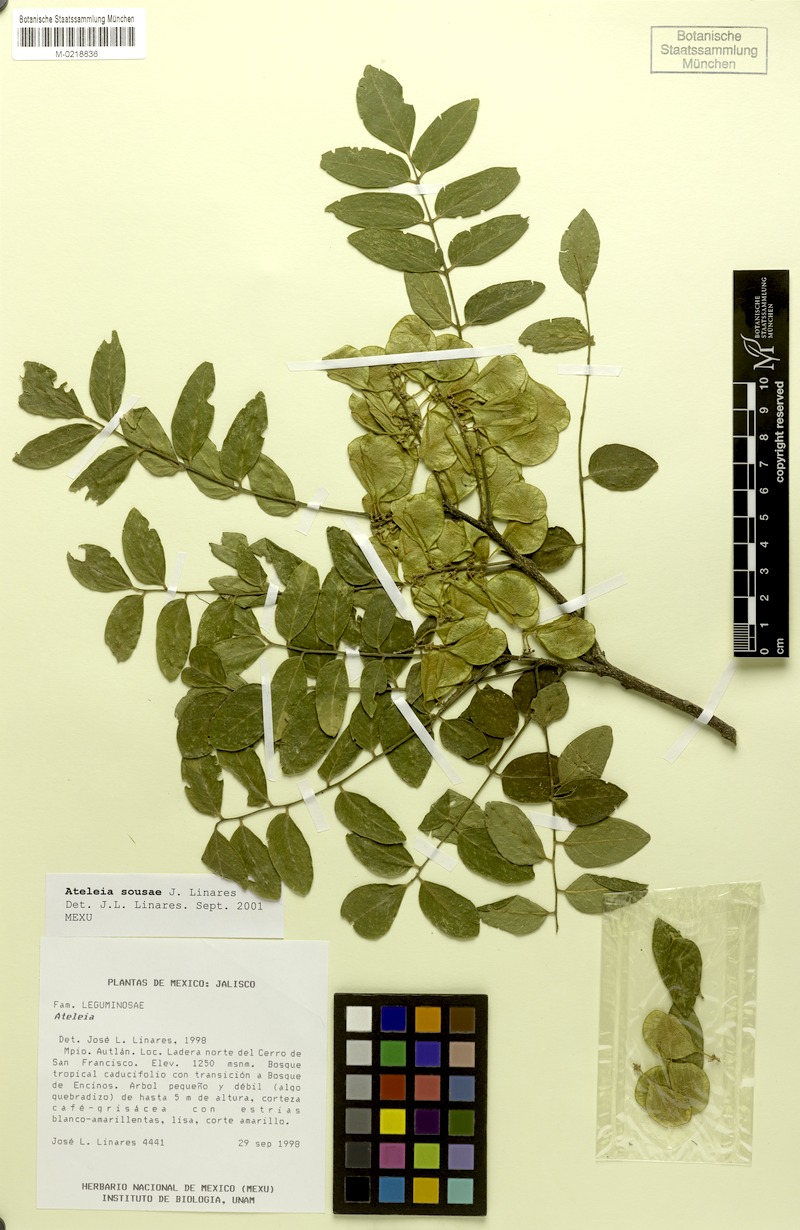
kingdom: Plantae
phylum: Tracheophyta
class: Magnoliopsida
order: Fabales
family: Fabaceae
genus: Ateleia
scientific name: Ateleia sousae
